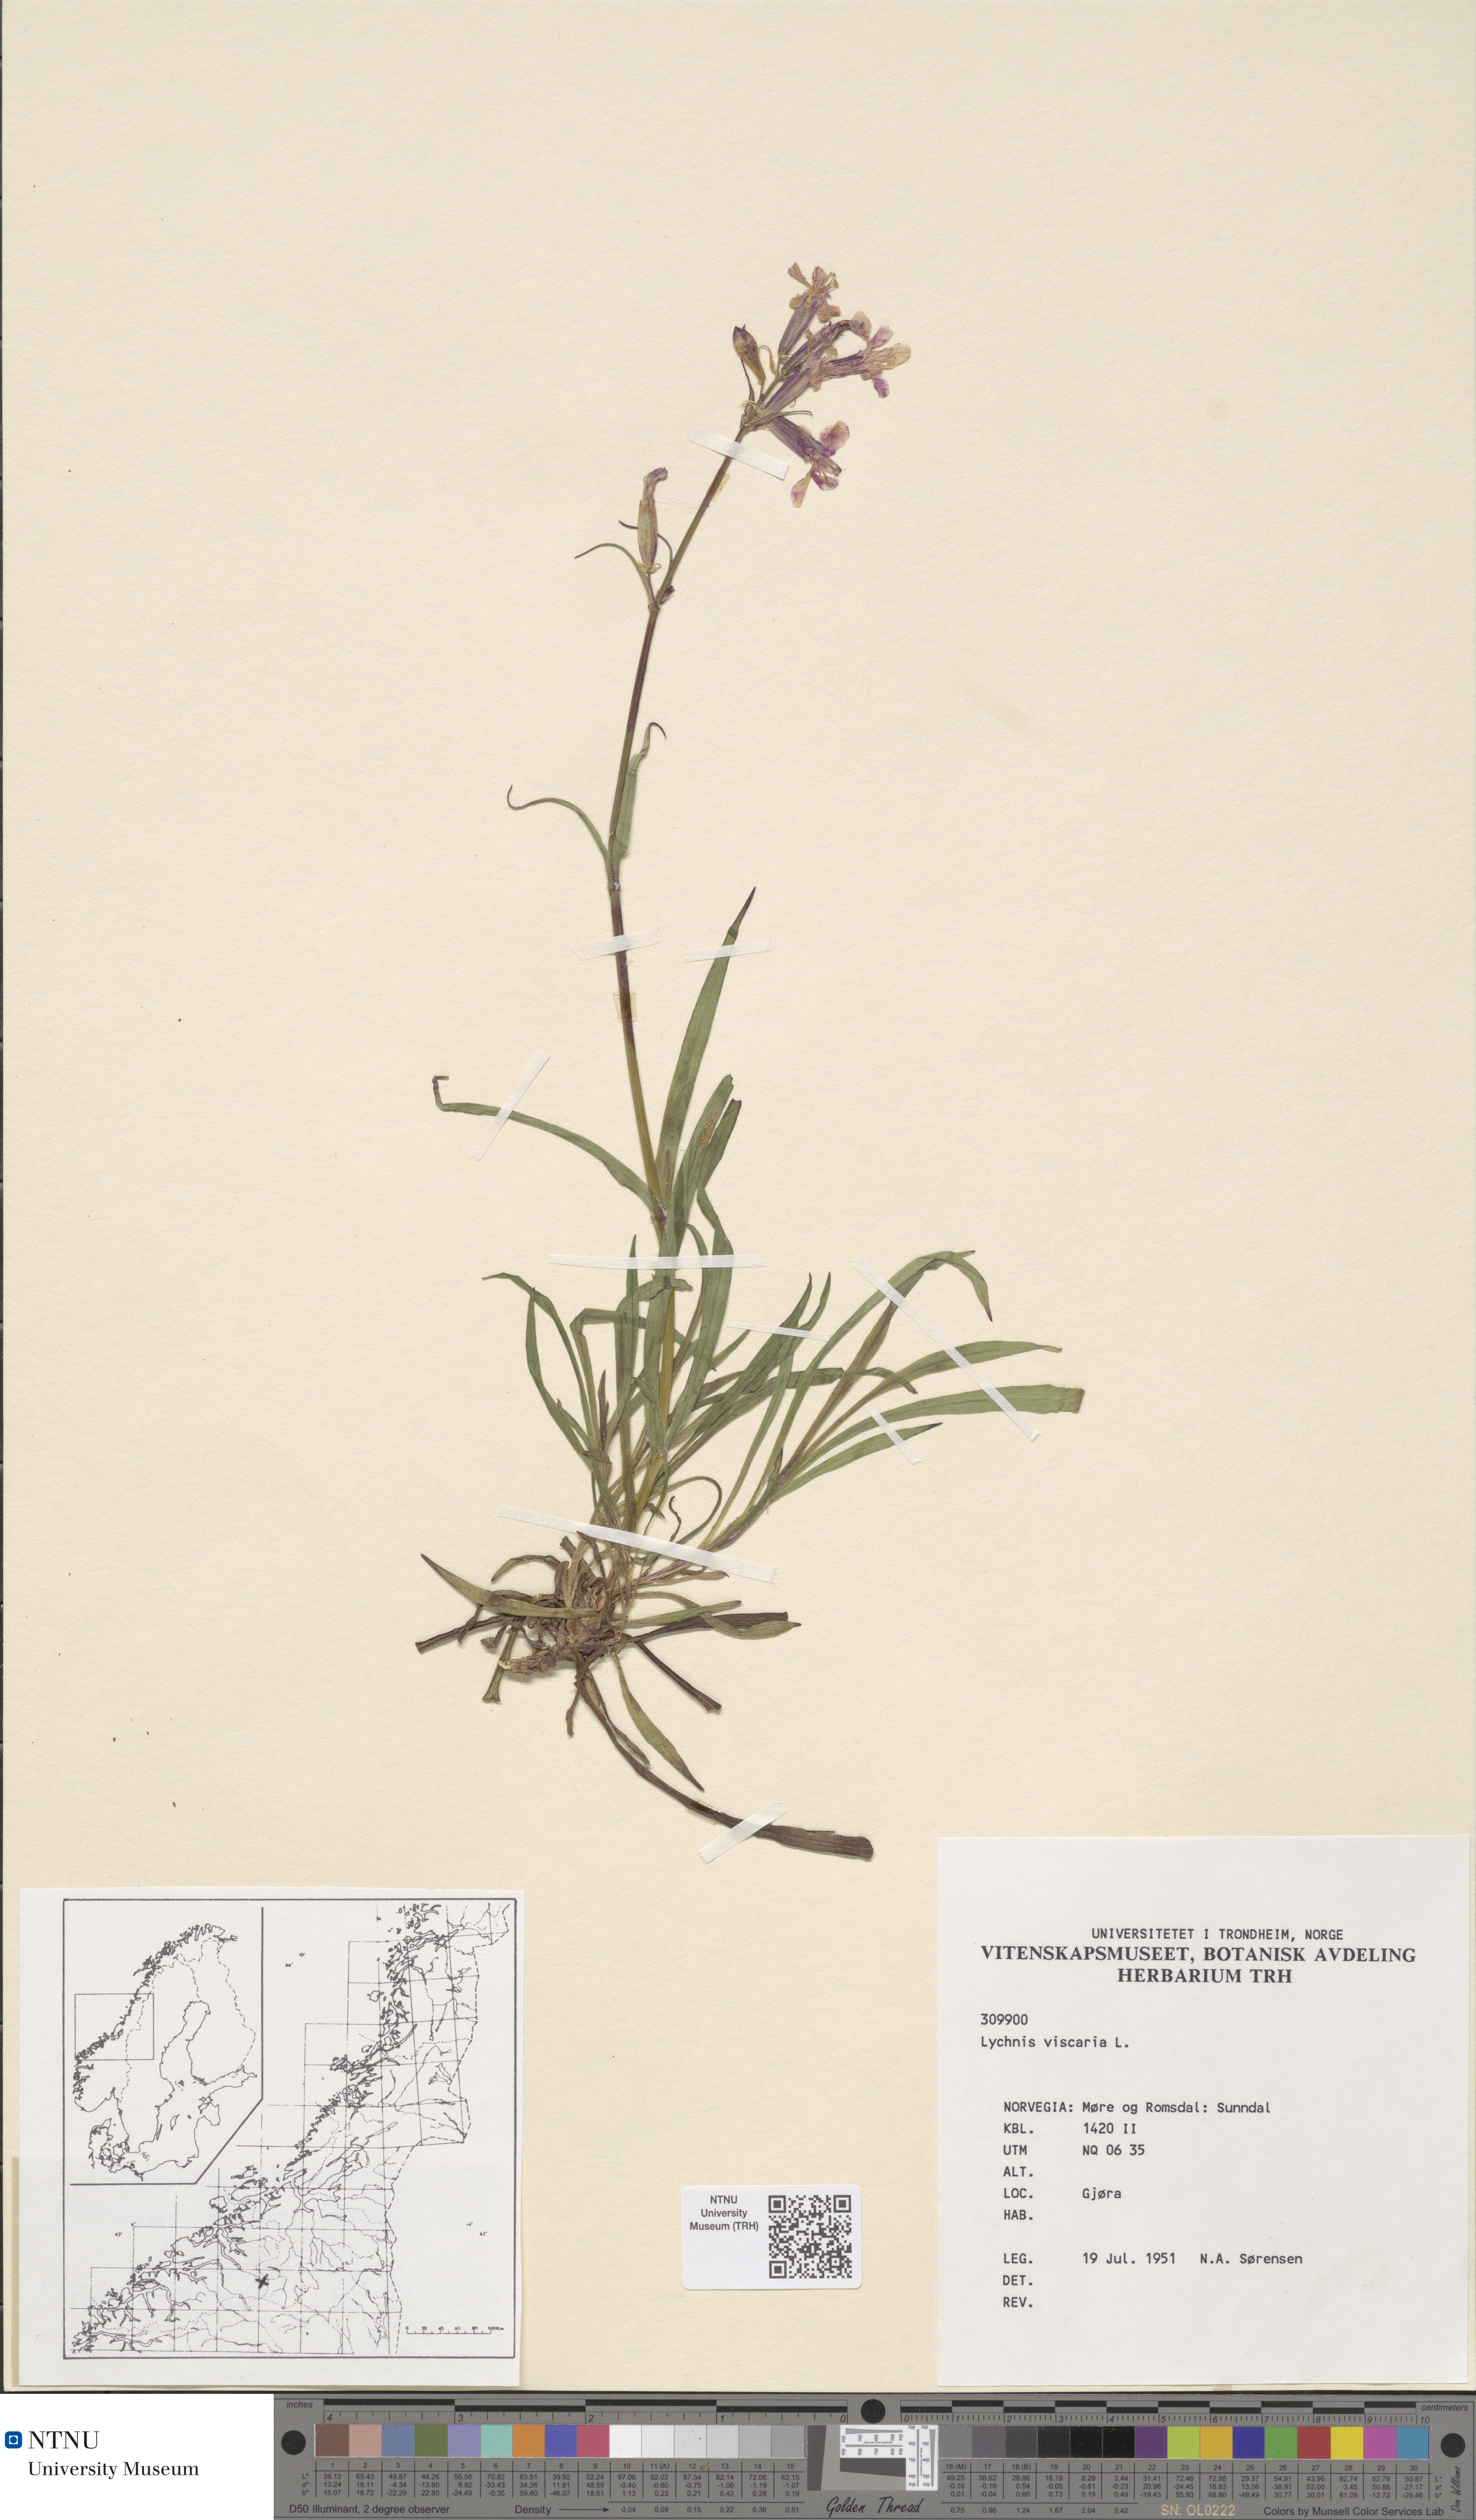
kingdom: Plantae
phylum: Tracheophyta
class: Magnoliopsida
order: Caryophyllales
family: Caryophyllaceae
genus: Viscaria
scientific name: Viscaria vulgaris
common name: Clammy campion
